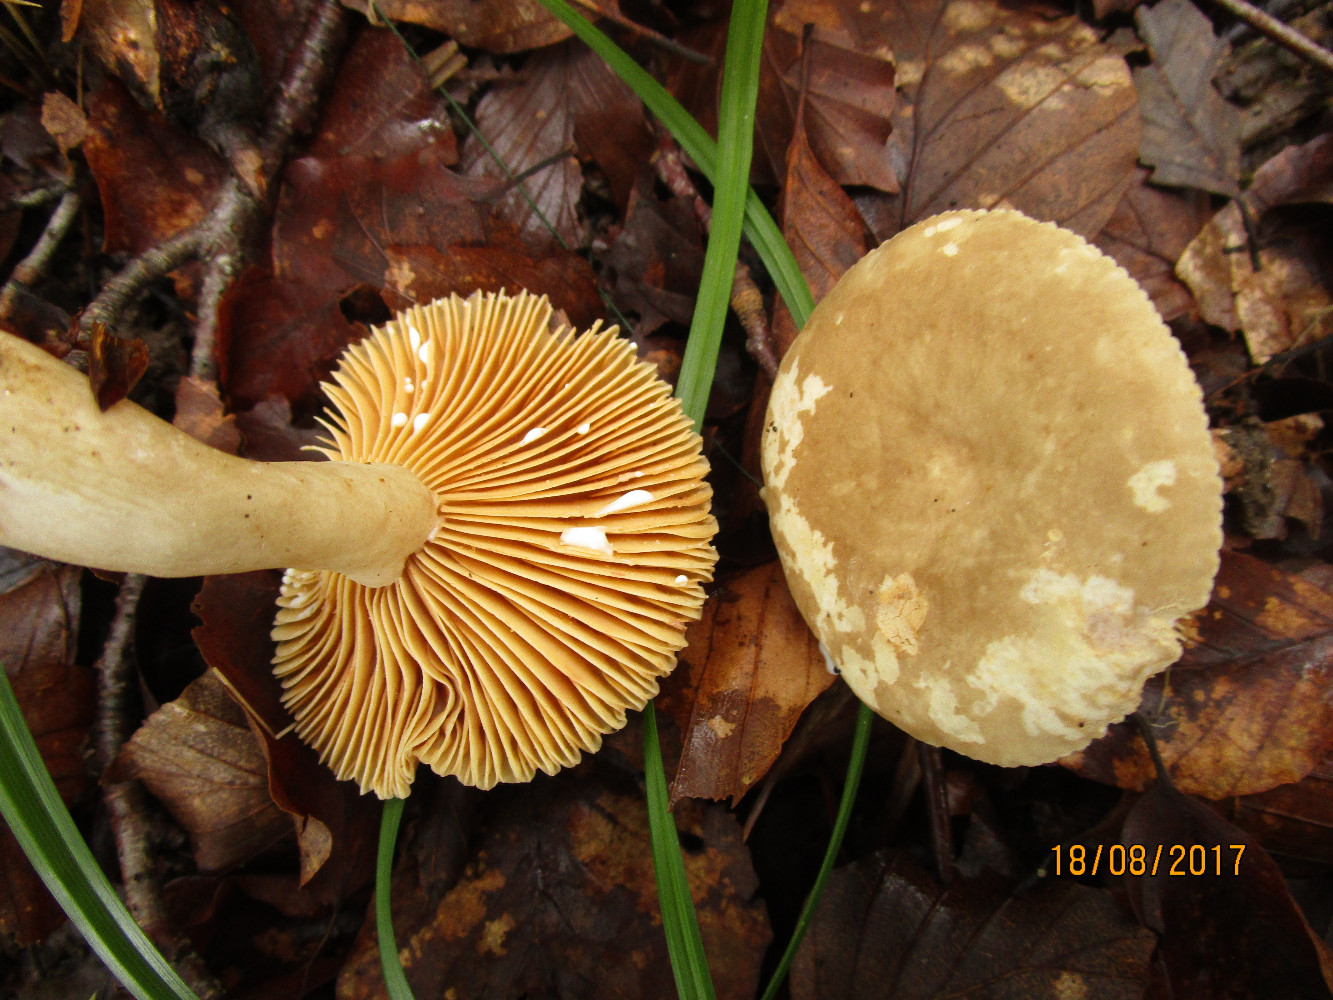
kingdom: Fungi
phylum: Basidiomycota
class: Agaricomycetes
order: Russulales
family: Russulaceae
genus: Lactarius
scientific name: Lactarius ruginosus
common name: gråbrun mælkehat
